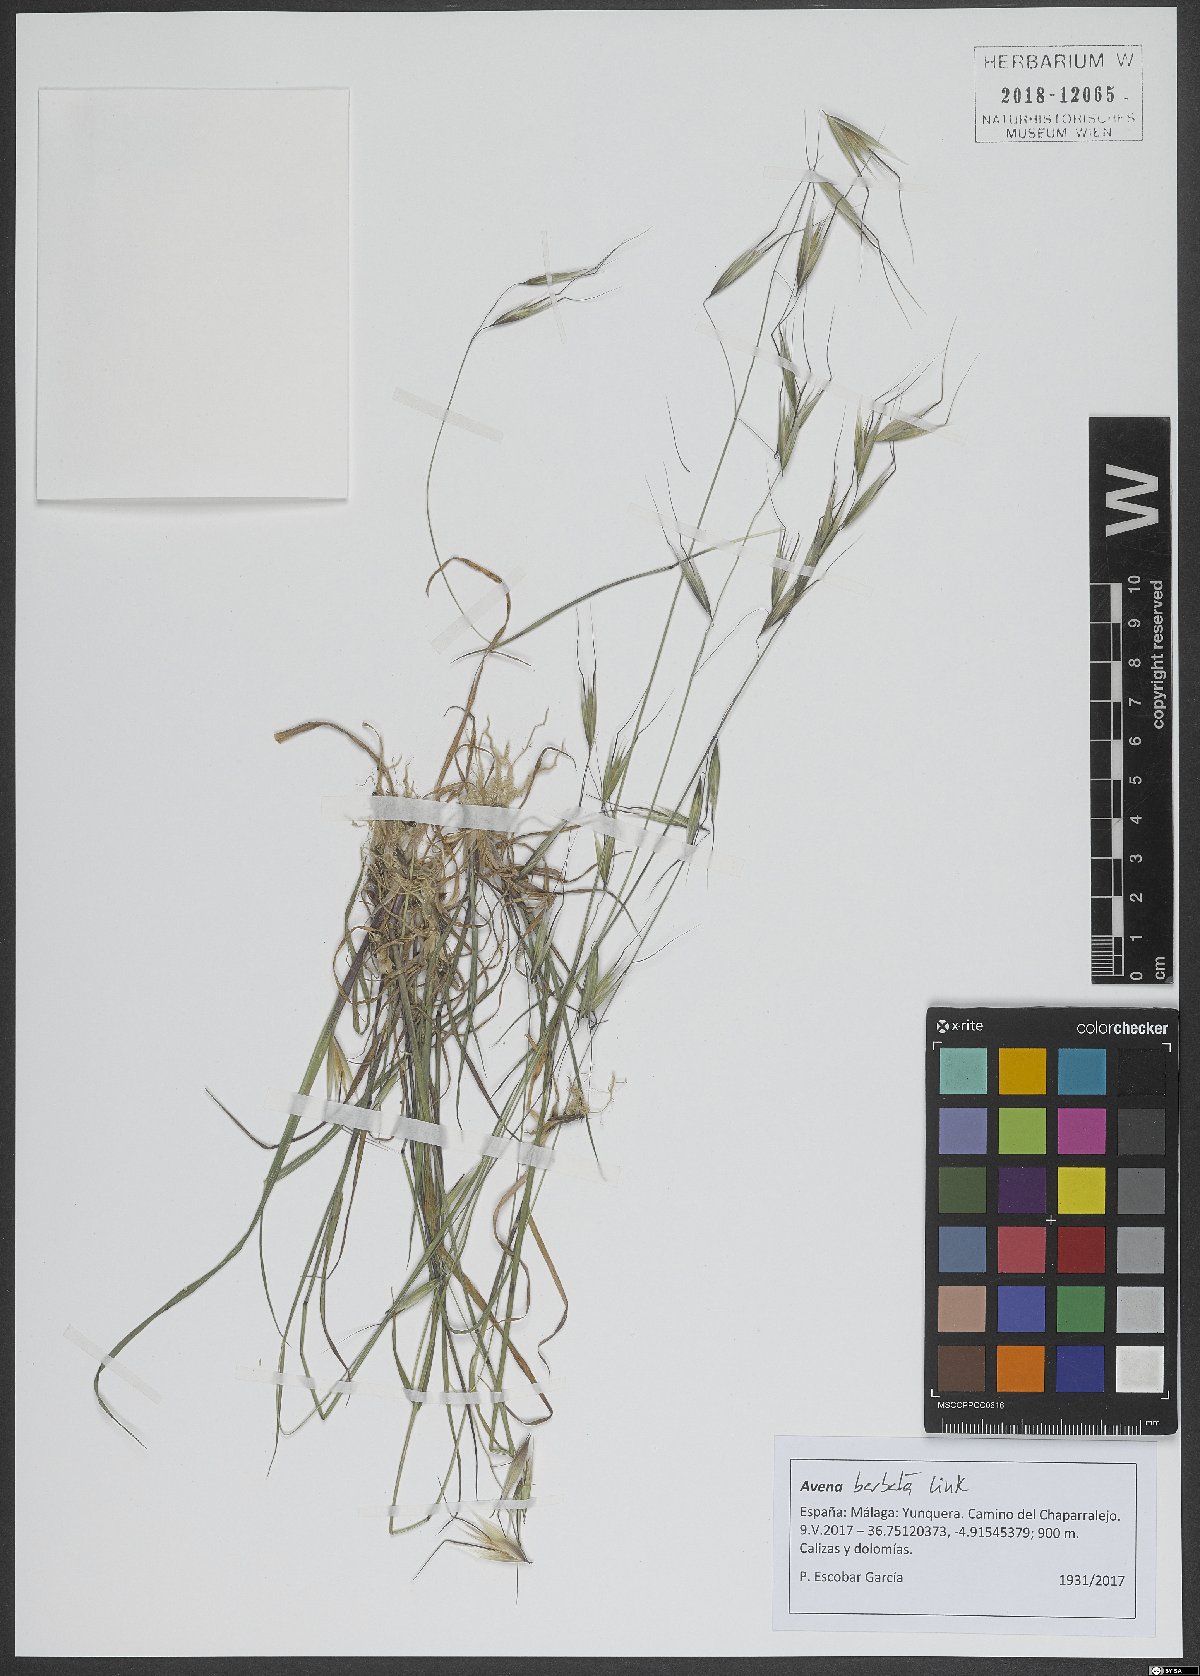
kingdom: Plantae
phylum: Tracheophyta
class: Liliopsida
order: Poales
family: Poaceae
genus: Avena
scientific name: Avena barbata
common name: Slender oat
